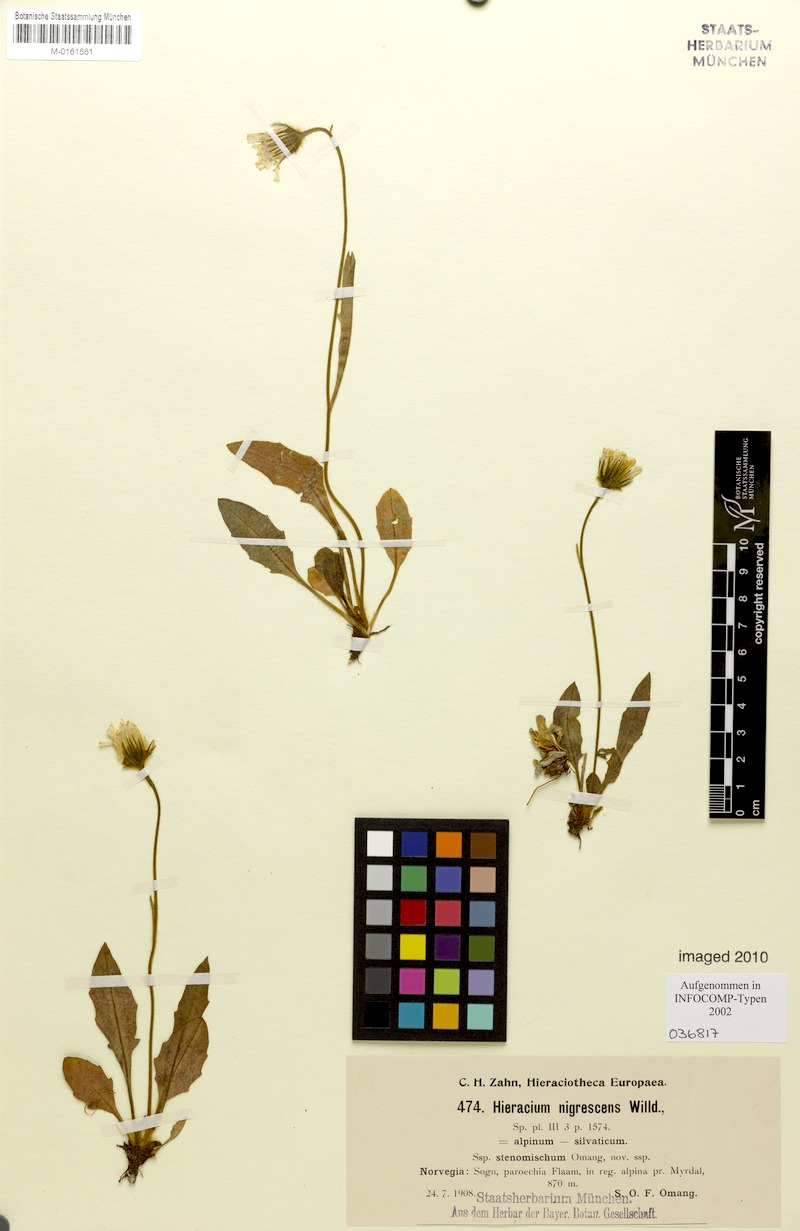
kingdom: Plantae
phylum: Tracheophyta
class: Magnoliopsida
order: Asterales
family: Asteraceae
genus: Hieracium
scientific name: Hieracium nigrescens
